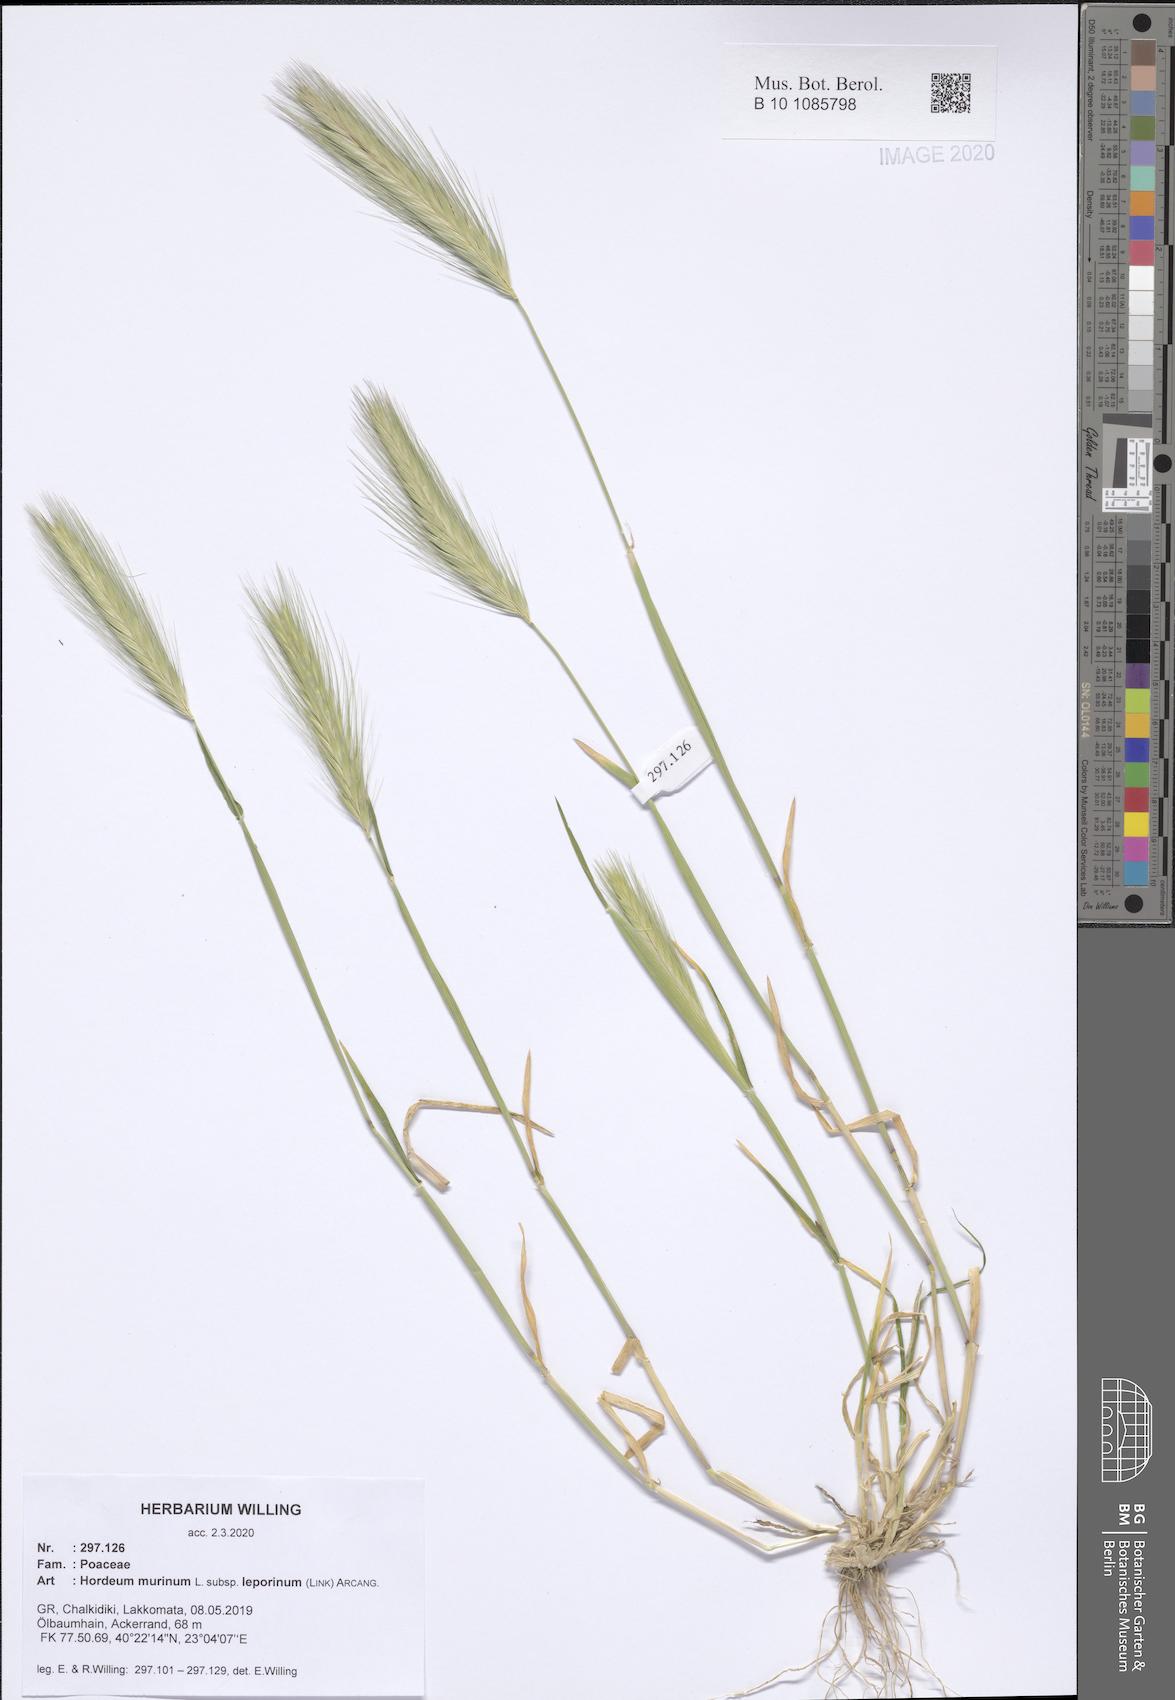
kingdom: Plantae
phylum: Tracheophyta
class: Liliopsida
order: Poales
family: Poaceae
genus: Hordeum
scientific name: Hordeum murinum
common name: Wall barley
